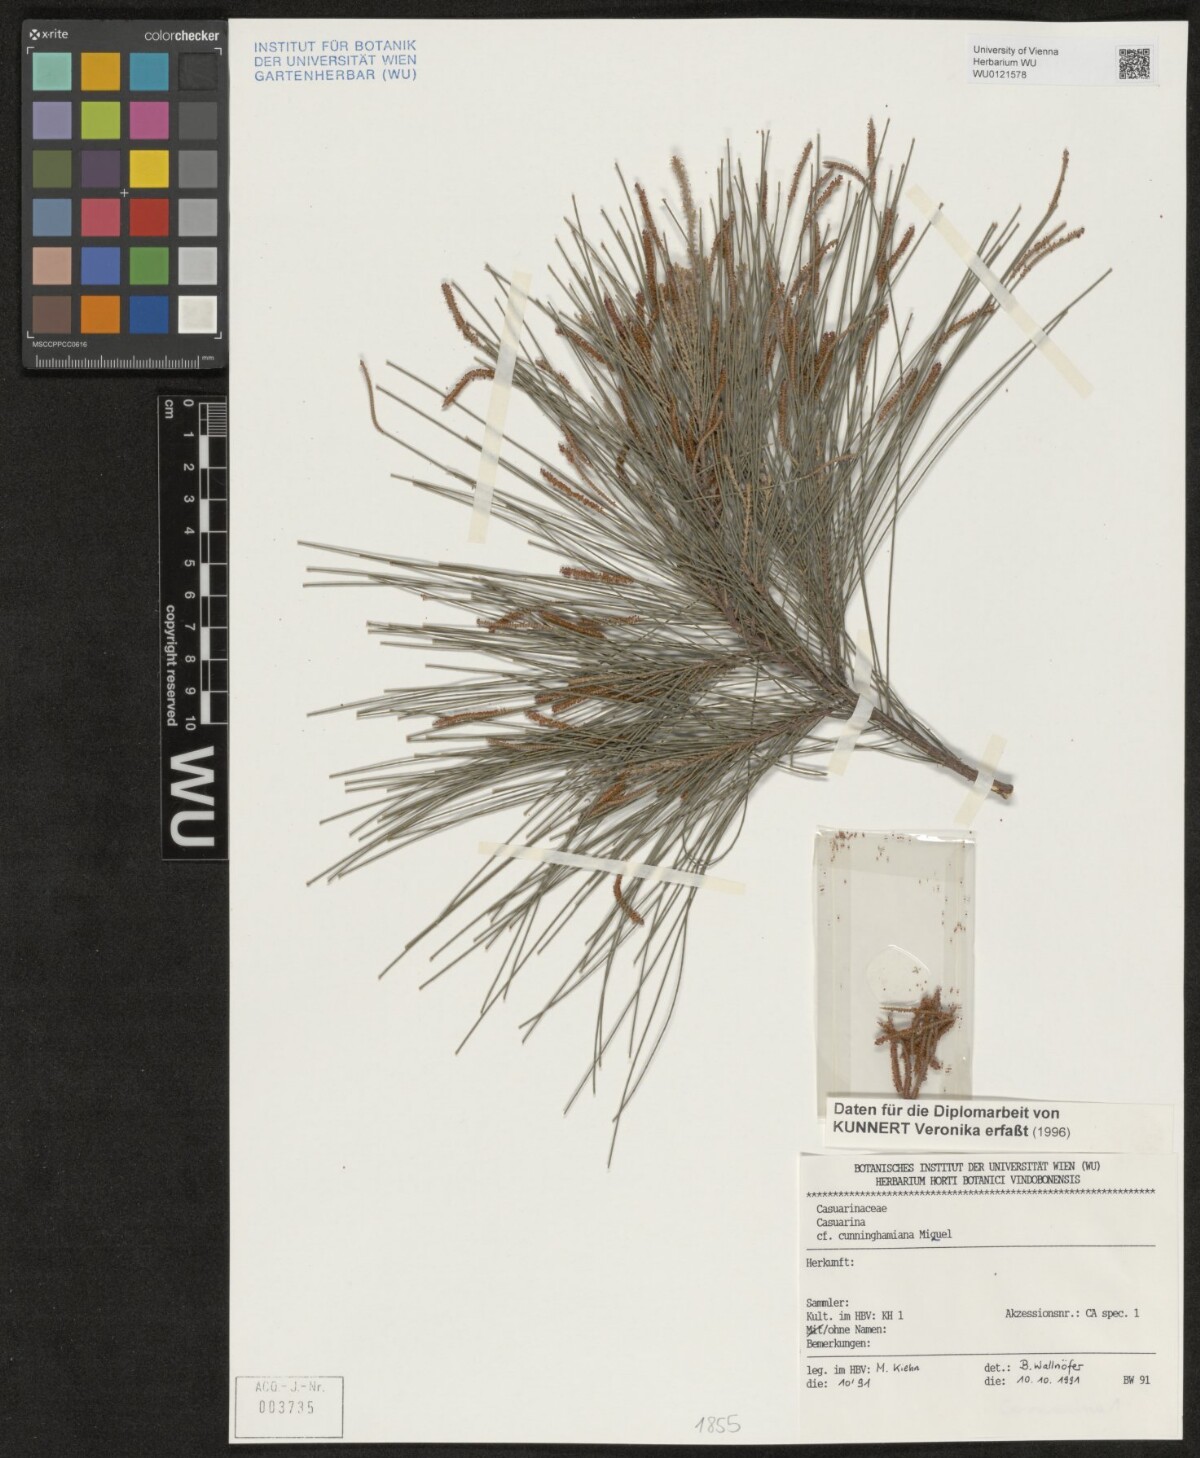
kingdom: Plantae
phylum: Tracheophyta
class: Magnoliopsida
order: Fagales
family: Casuarinaceae
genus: Casuarina
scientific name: Casuarina cunninghamiana
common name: River sheoak
